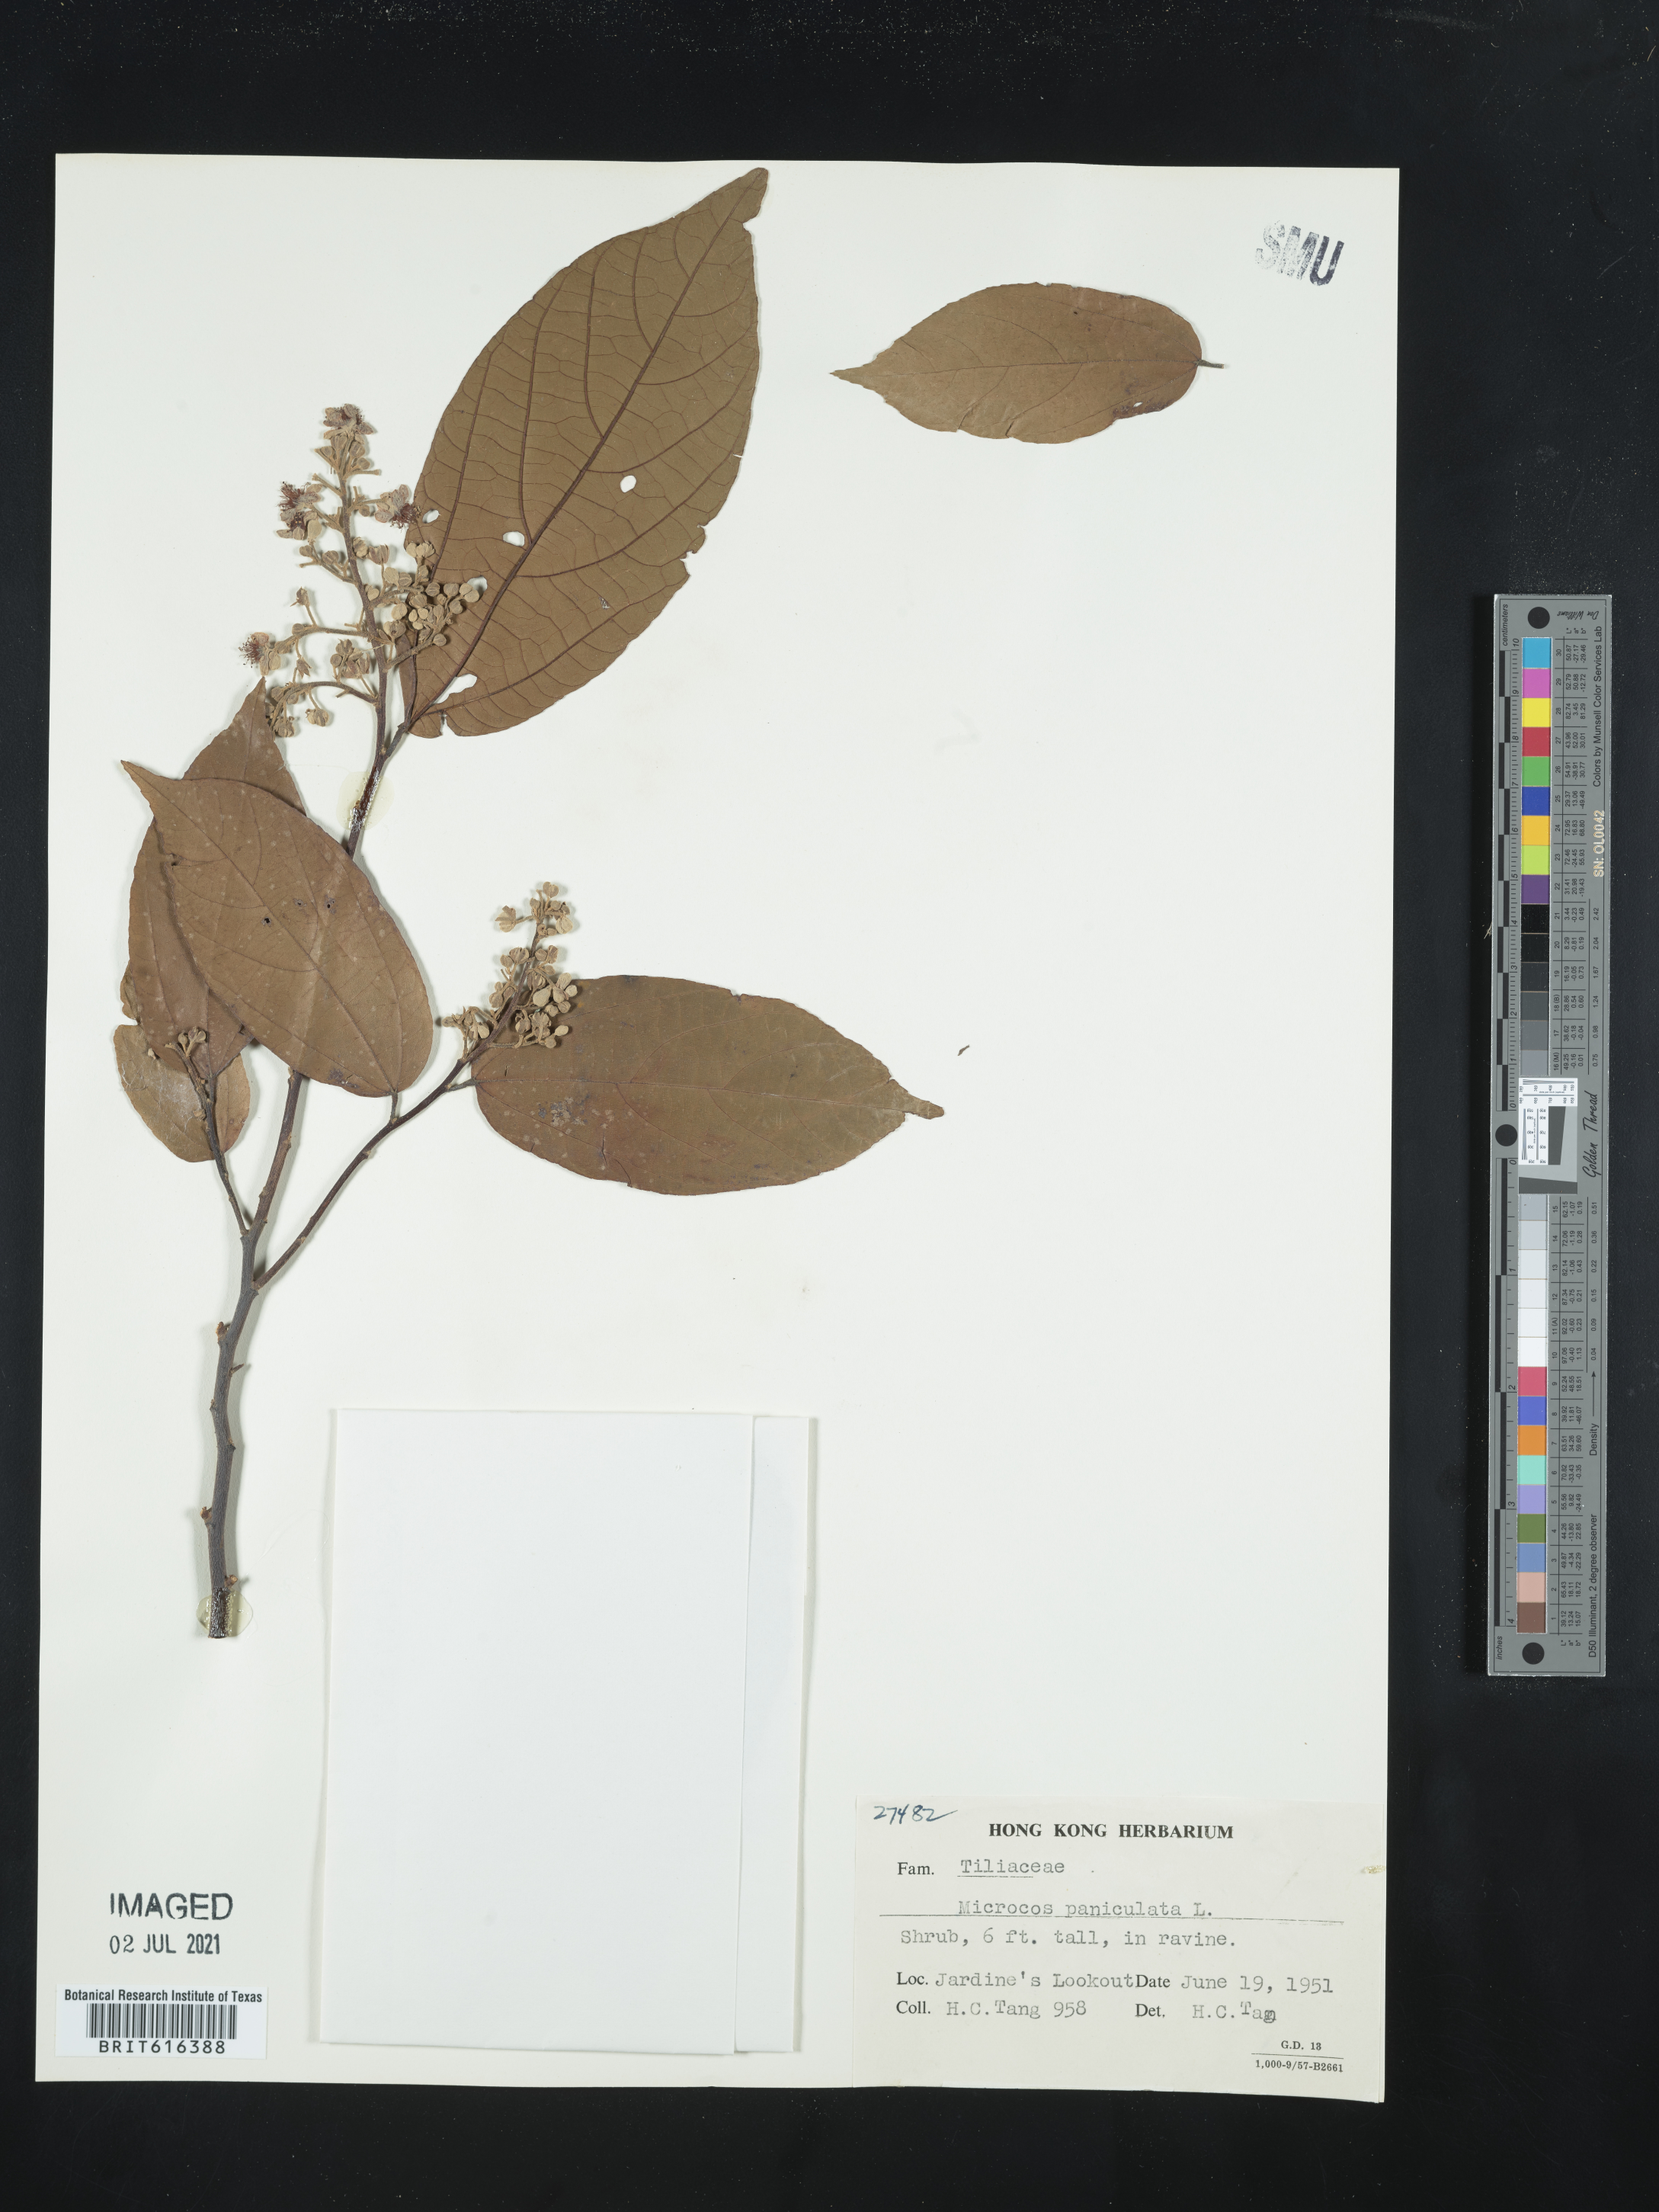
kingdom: Plantae
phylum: Tracheophyta
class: Magnoliopsida
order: Malvales
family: Malvaceae
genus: Microcos
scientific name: Microcos paniculata
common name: Microcos
